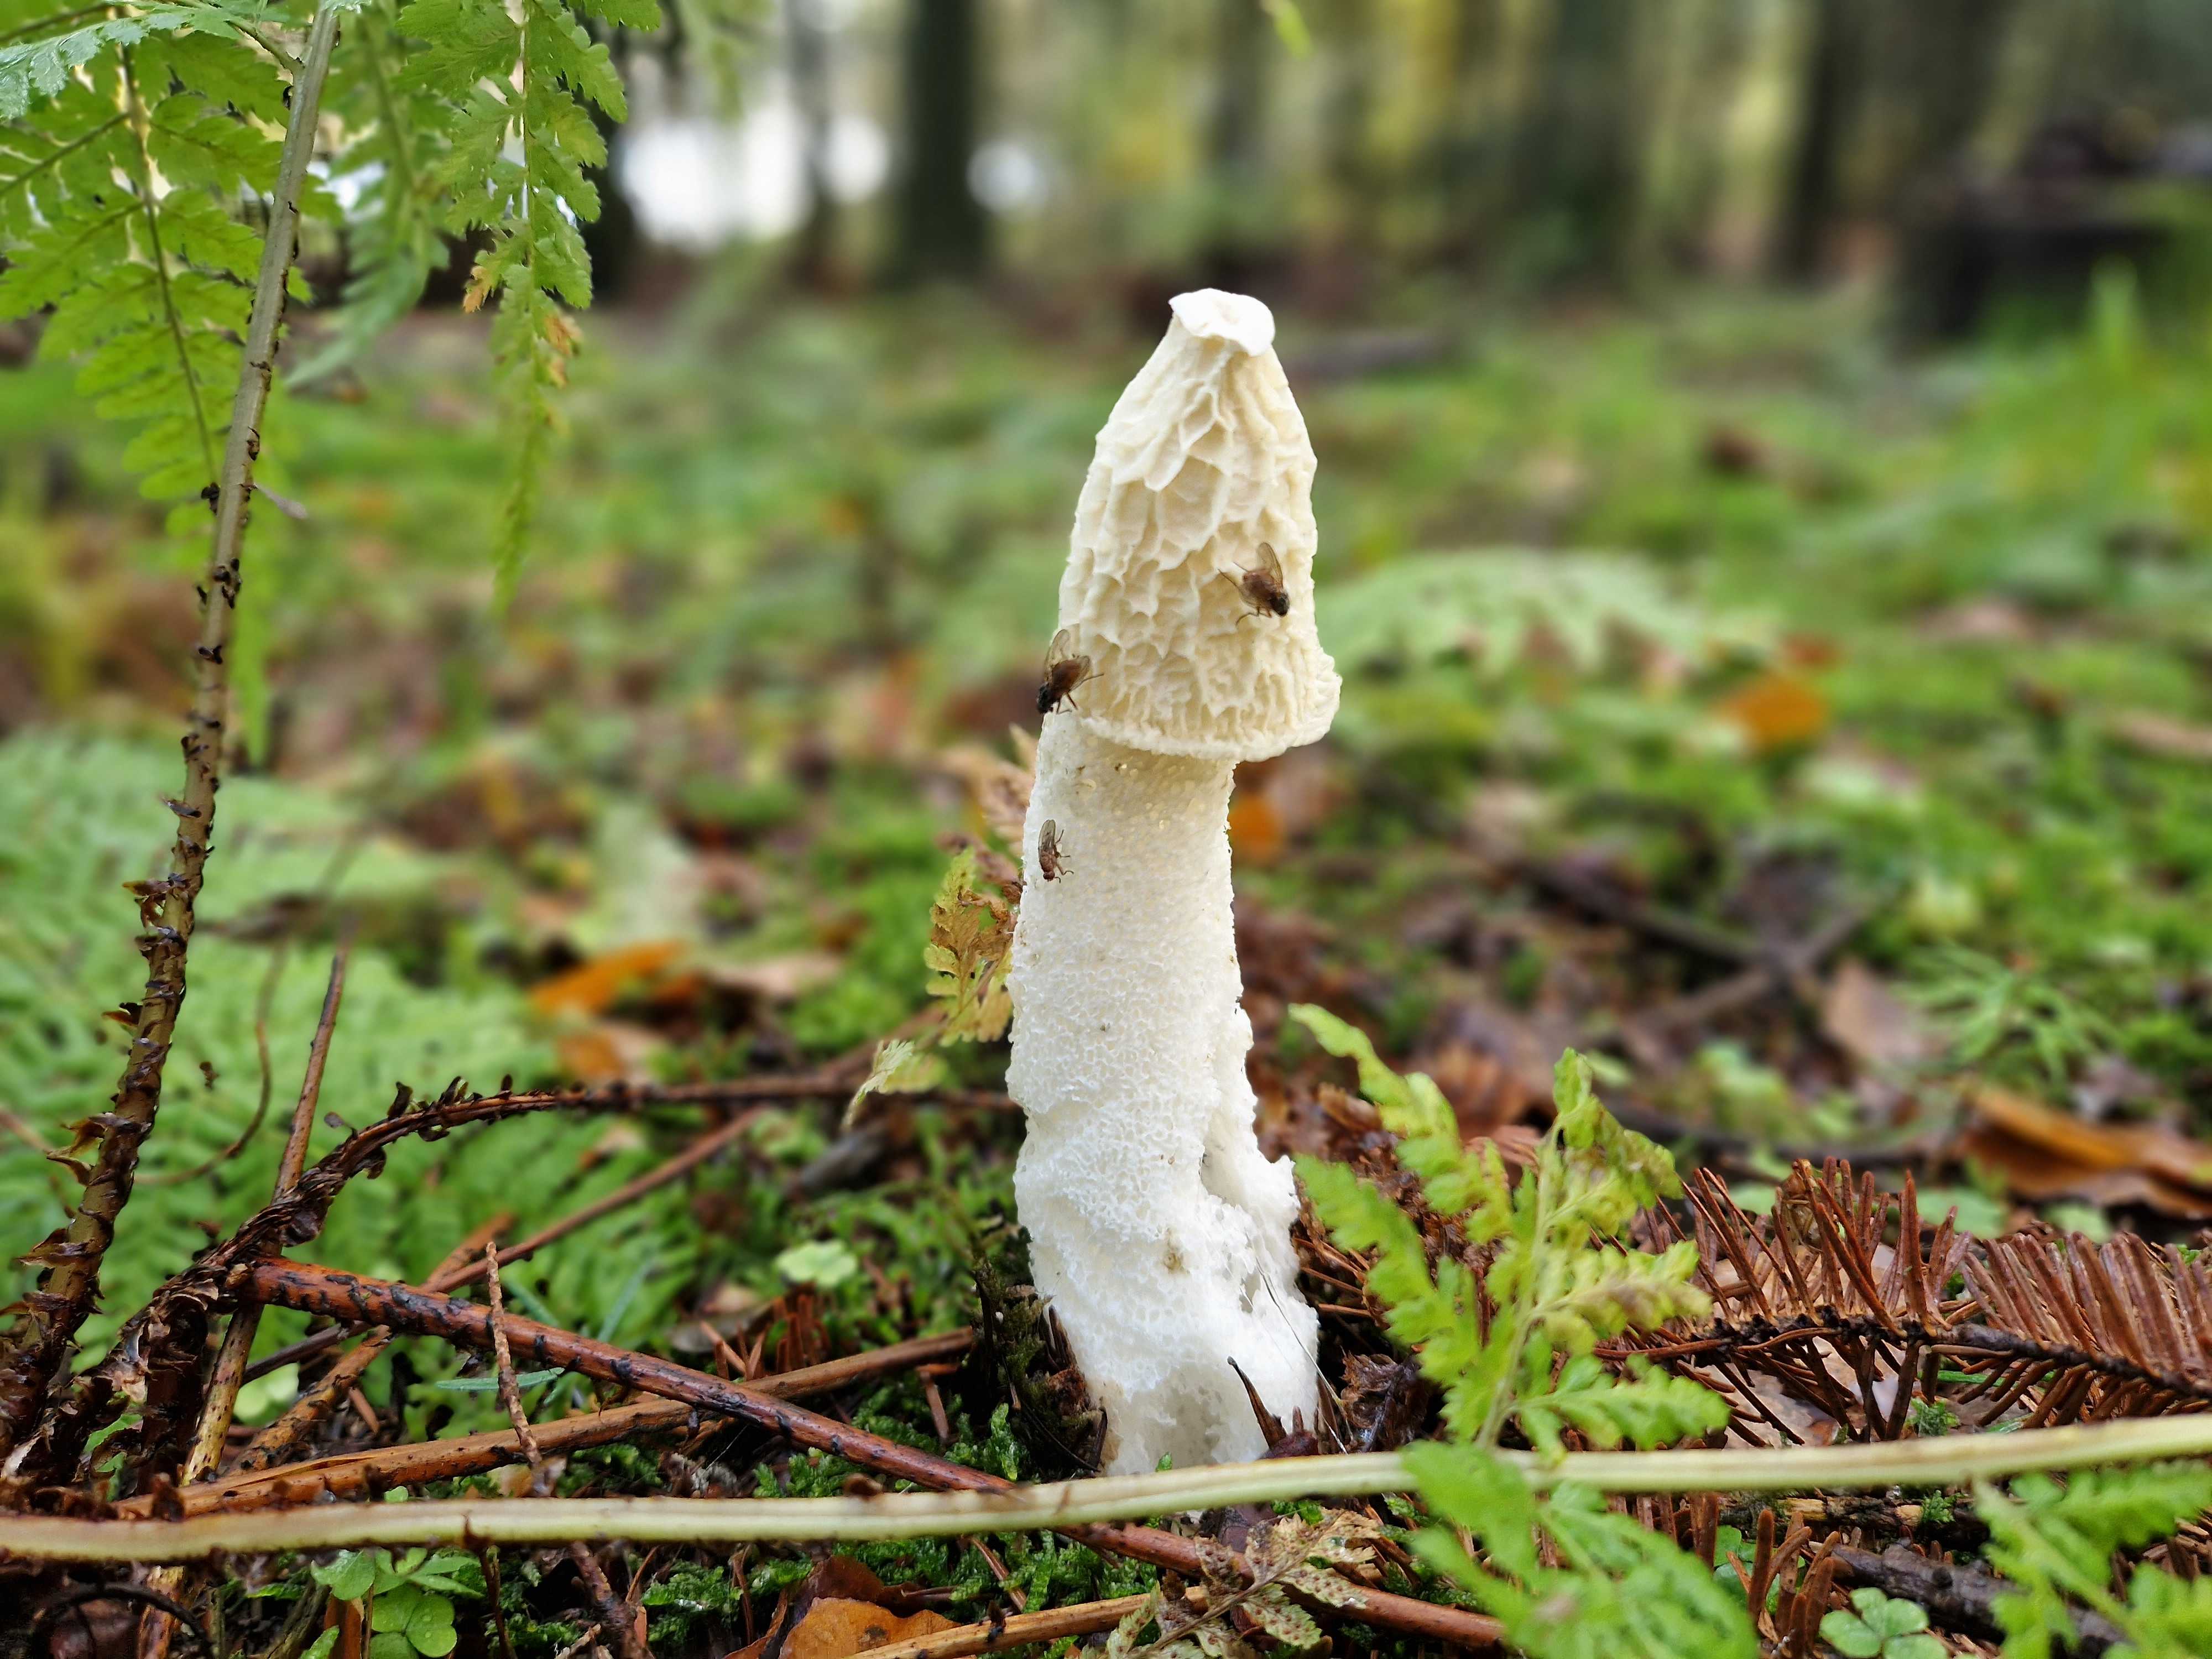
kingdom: Fungi
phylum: Basidiomycota
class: Agaricomycetes
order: Phallales
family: Phallaceae
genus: Phallus
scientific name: Phallus impudicus
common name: almindelig stinksvamp
